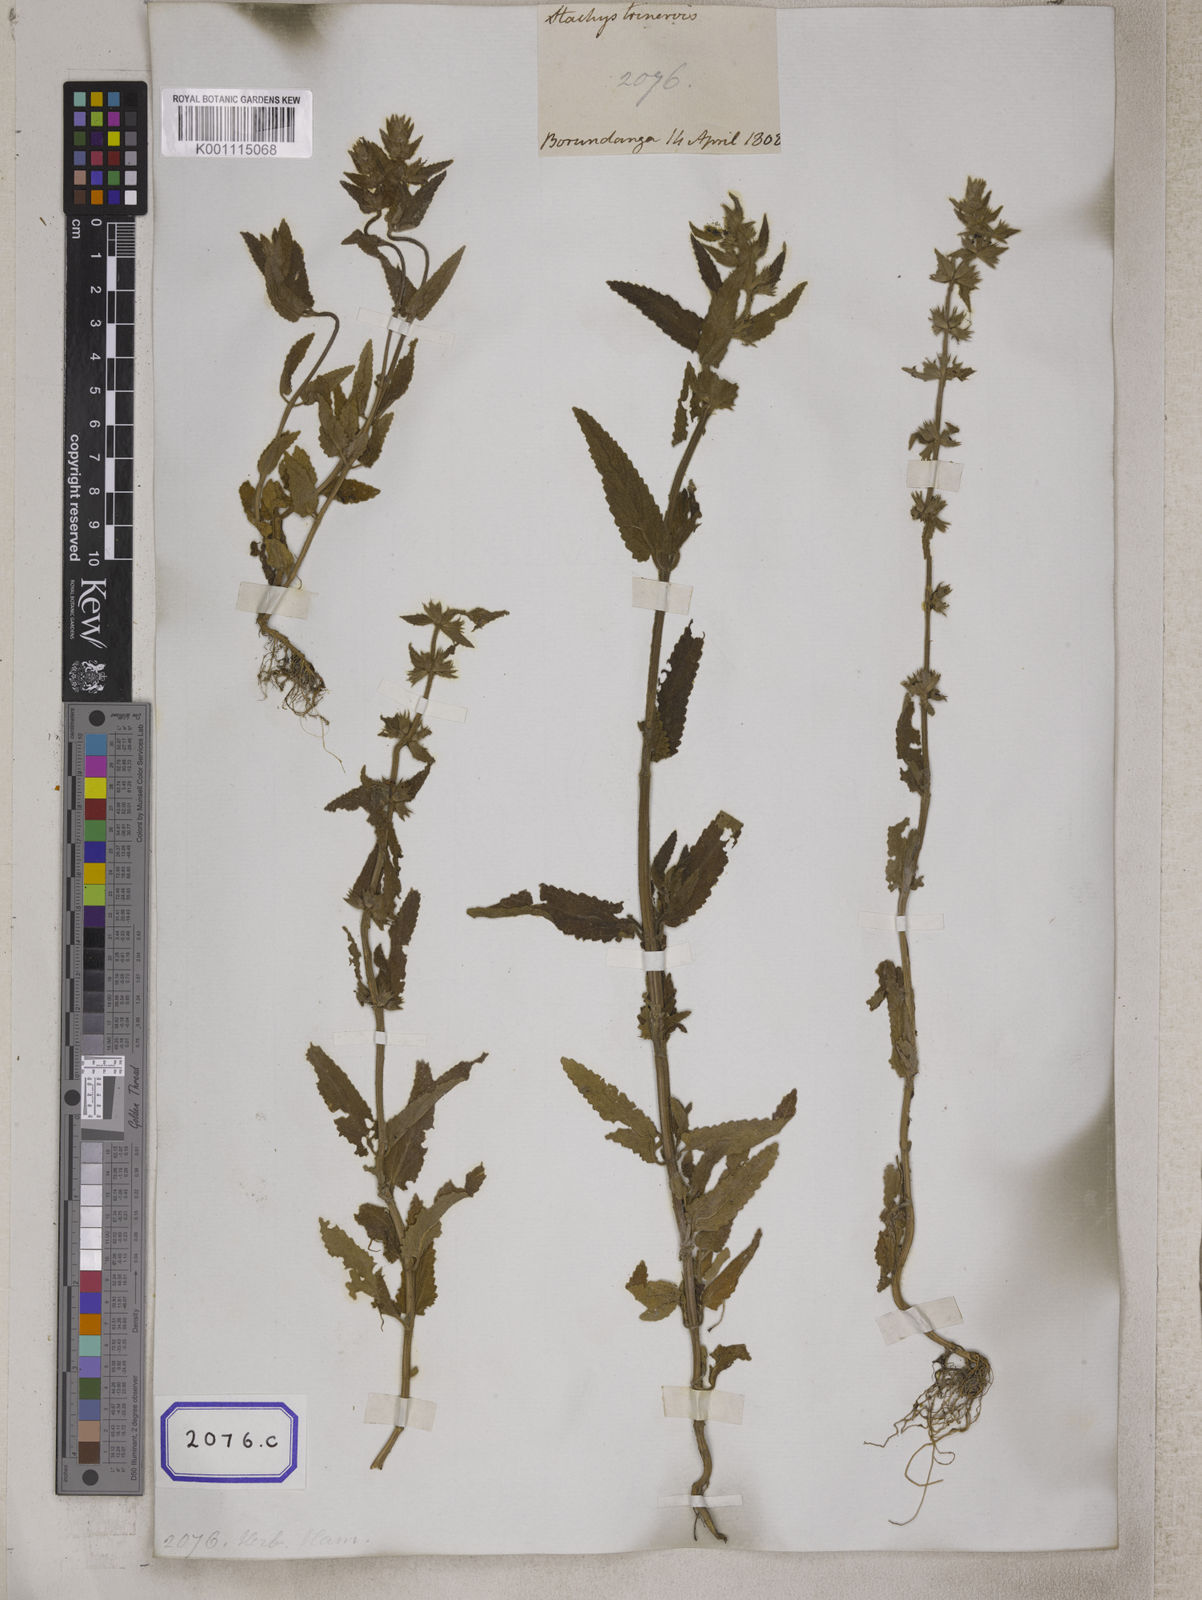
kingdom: Plantae
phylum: Tracheophyta
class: Magnoliopsida
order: Lamiales
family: Lamiaceae
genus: Stachys
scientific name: Stachys
